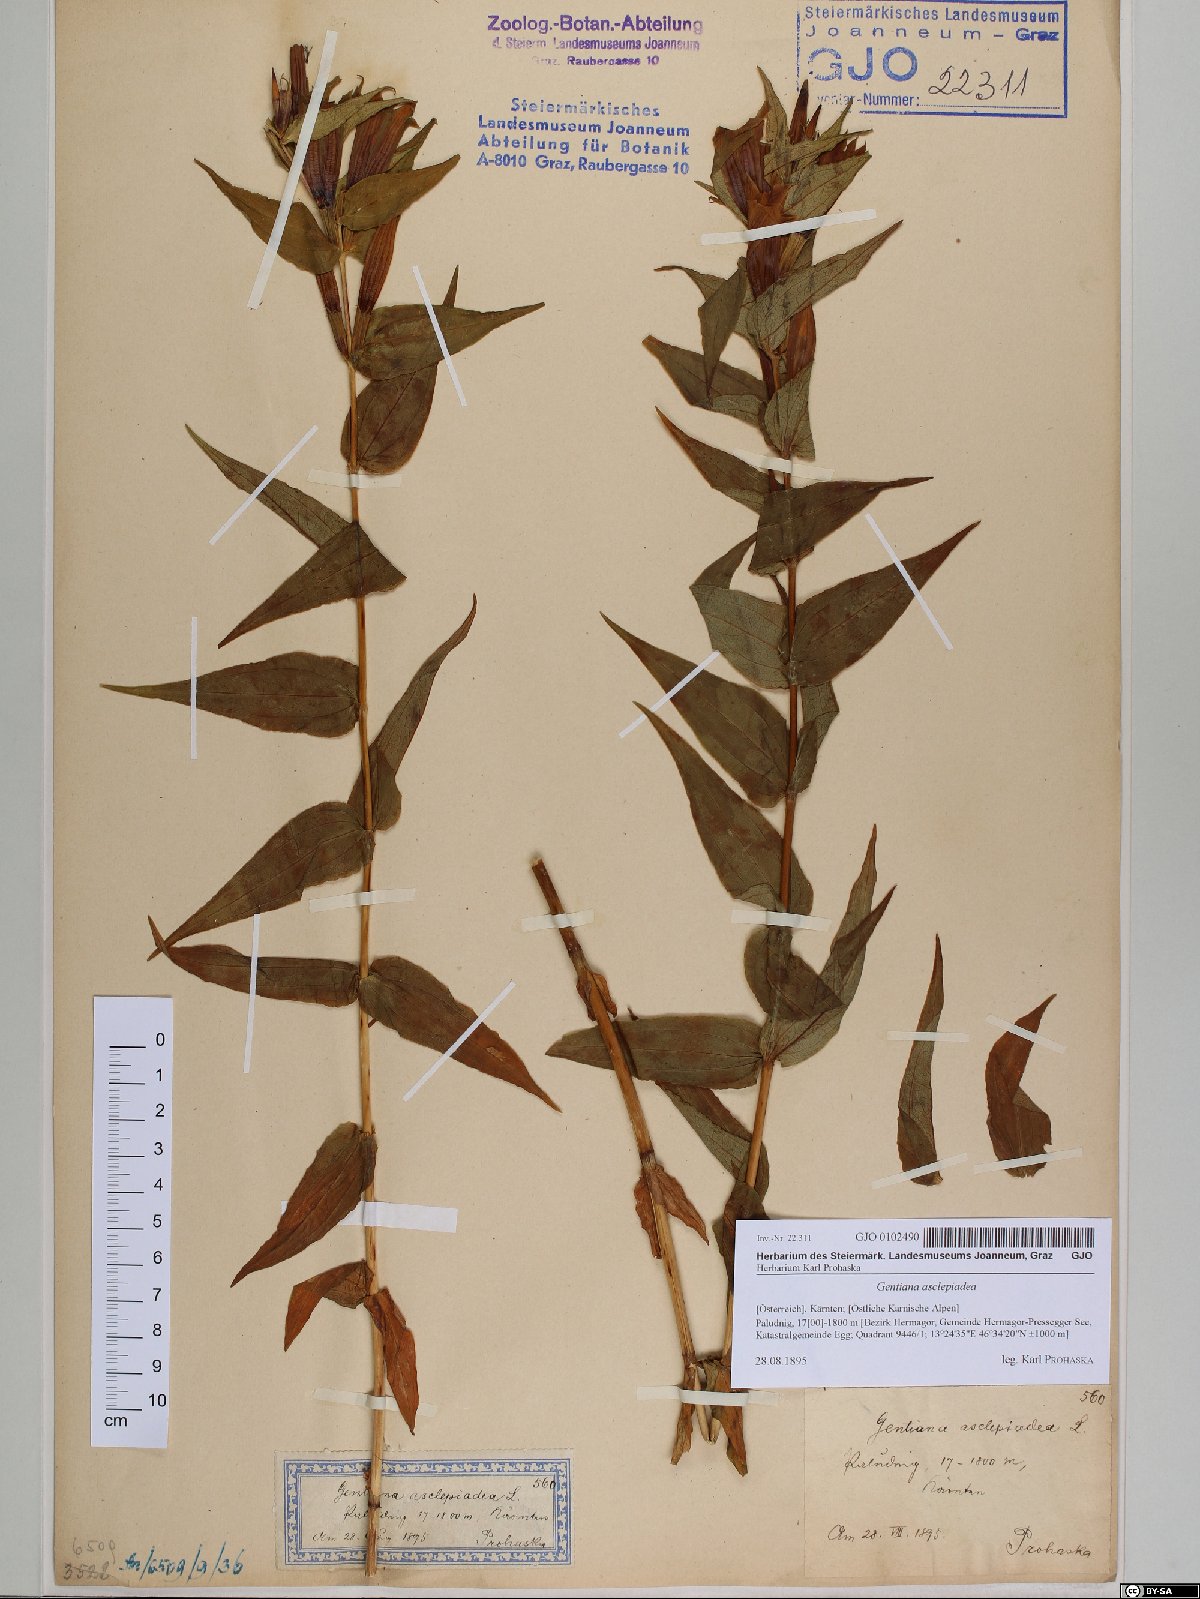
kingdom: Plantae
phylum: Tracheophyta
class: Magnoliopsida
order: Gentianales
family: Gentianaceae
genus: Gentiana
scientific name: Gentiana asclepiadea
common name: Willow gentian
